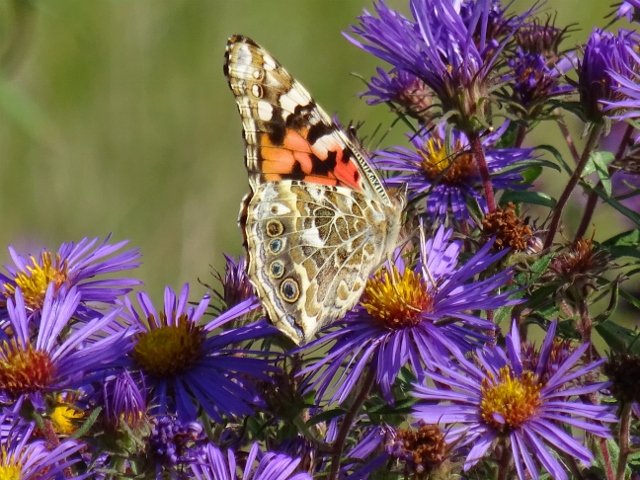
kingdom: Animalia
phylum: Arthropoda
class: Insecta
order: Lepidoptera
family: Nymphalidae
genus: Vanessa
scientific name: Vanessa cardui
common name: Painted Lady
